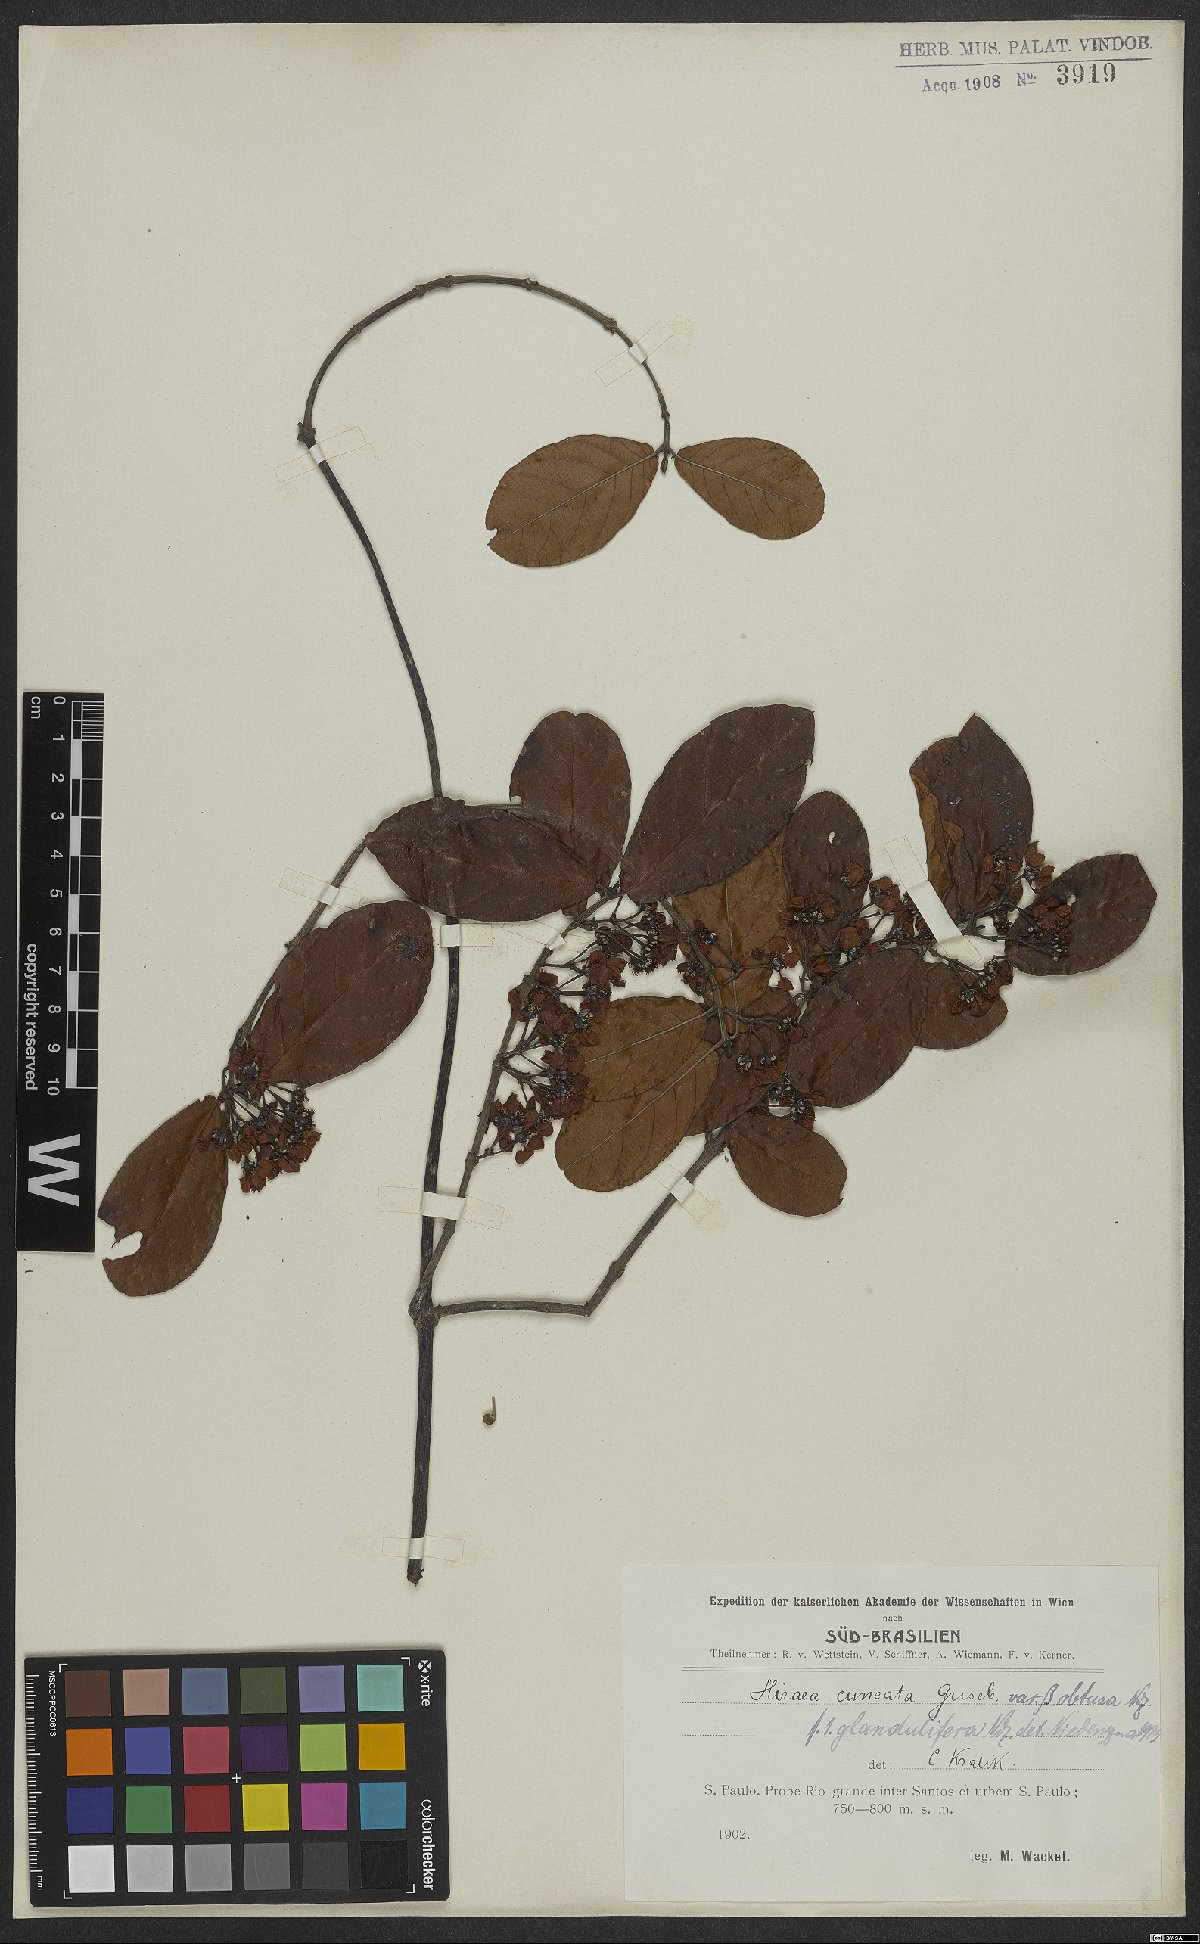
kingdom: Plantae
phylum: Tracheophyta
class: Magnoliopsida
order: Malpighiales
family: Malpighiaceae
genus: Hiraea
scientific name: Hiraea cuneata
